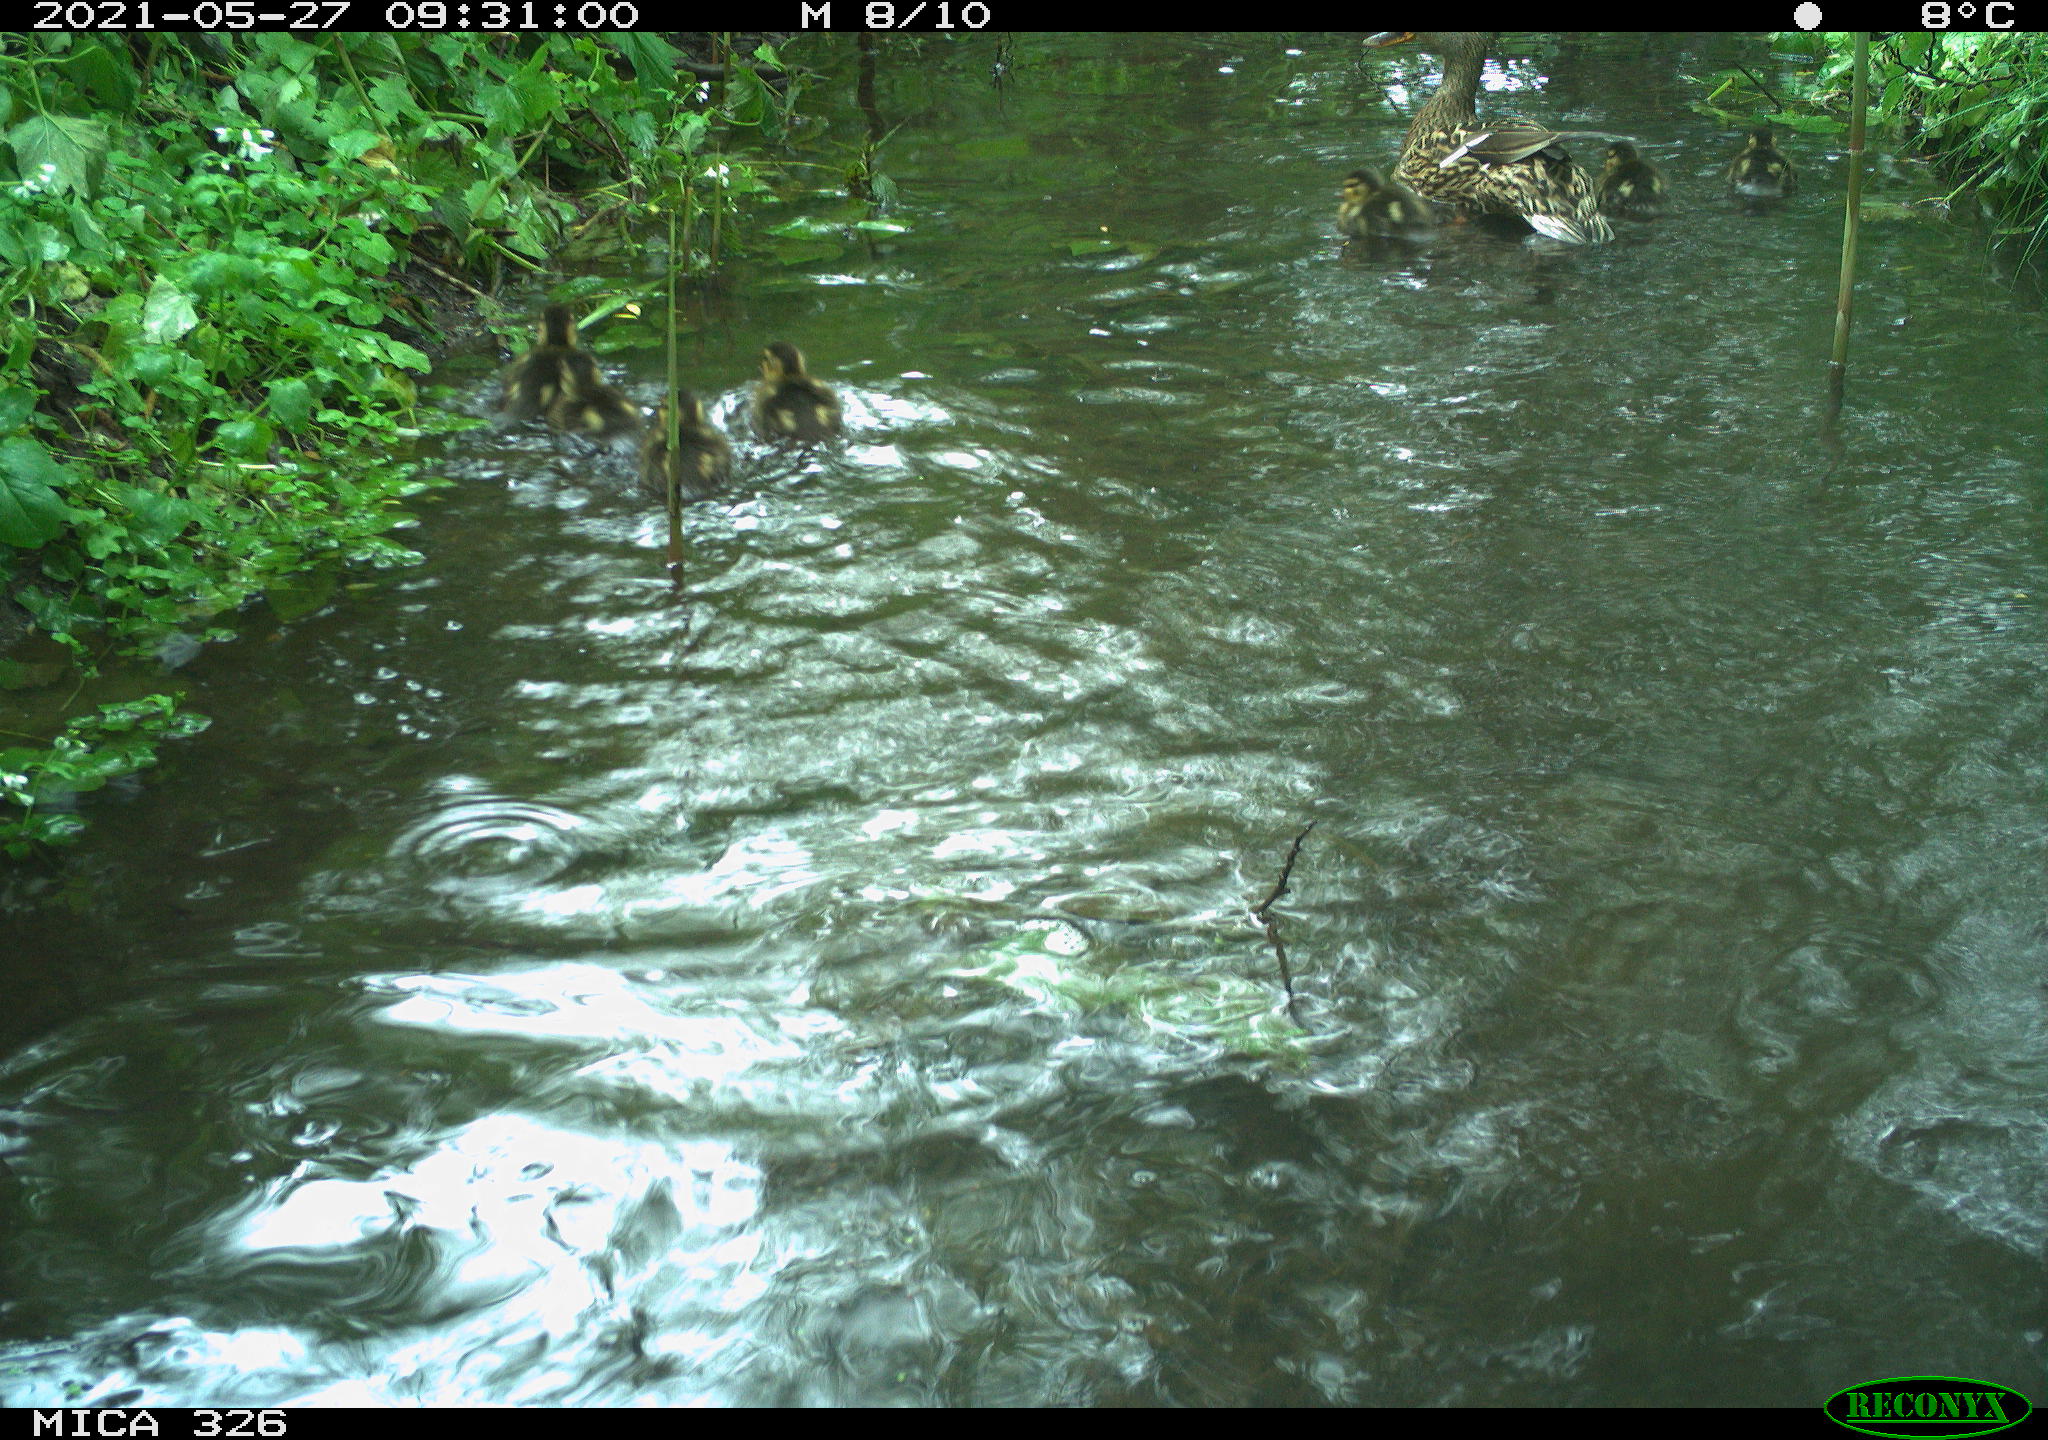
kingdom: Animalia
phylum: Chordata
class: Aves
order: Anseriformes
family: Anatidae
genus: Anas
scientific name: Anas platyrhynchos
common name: Mallard
